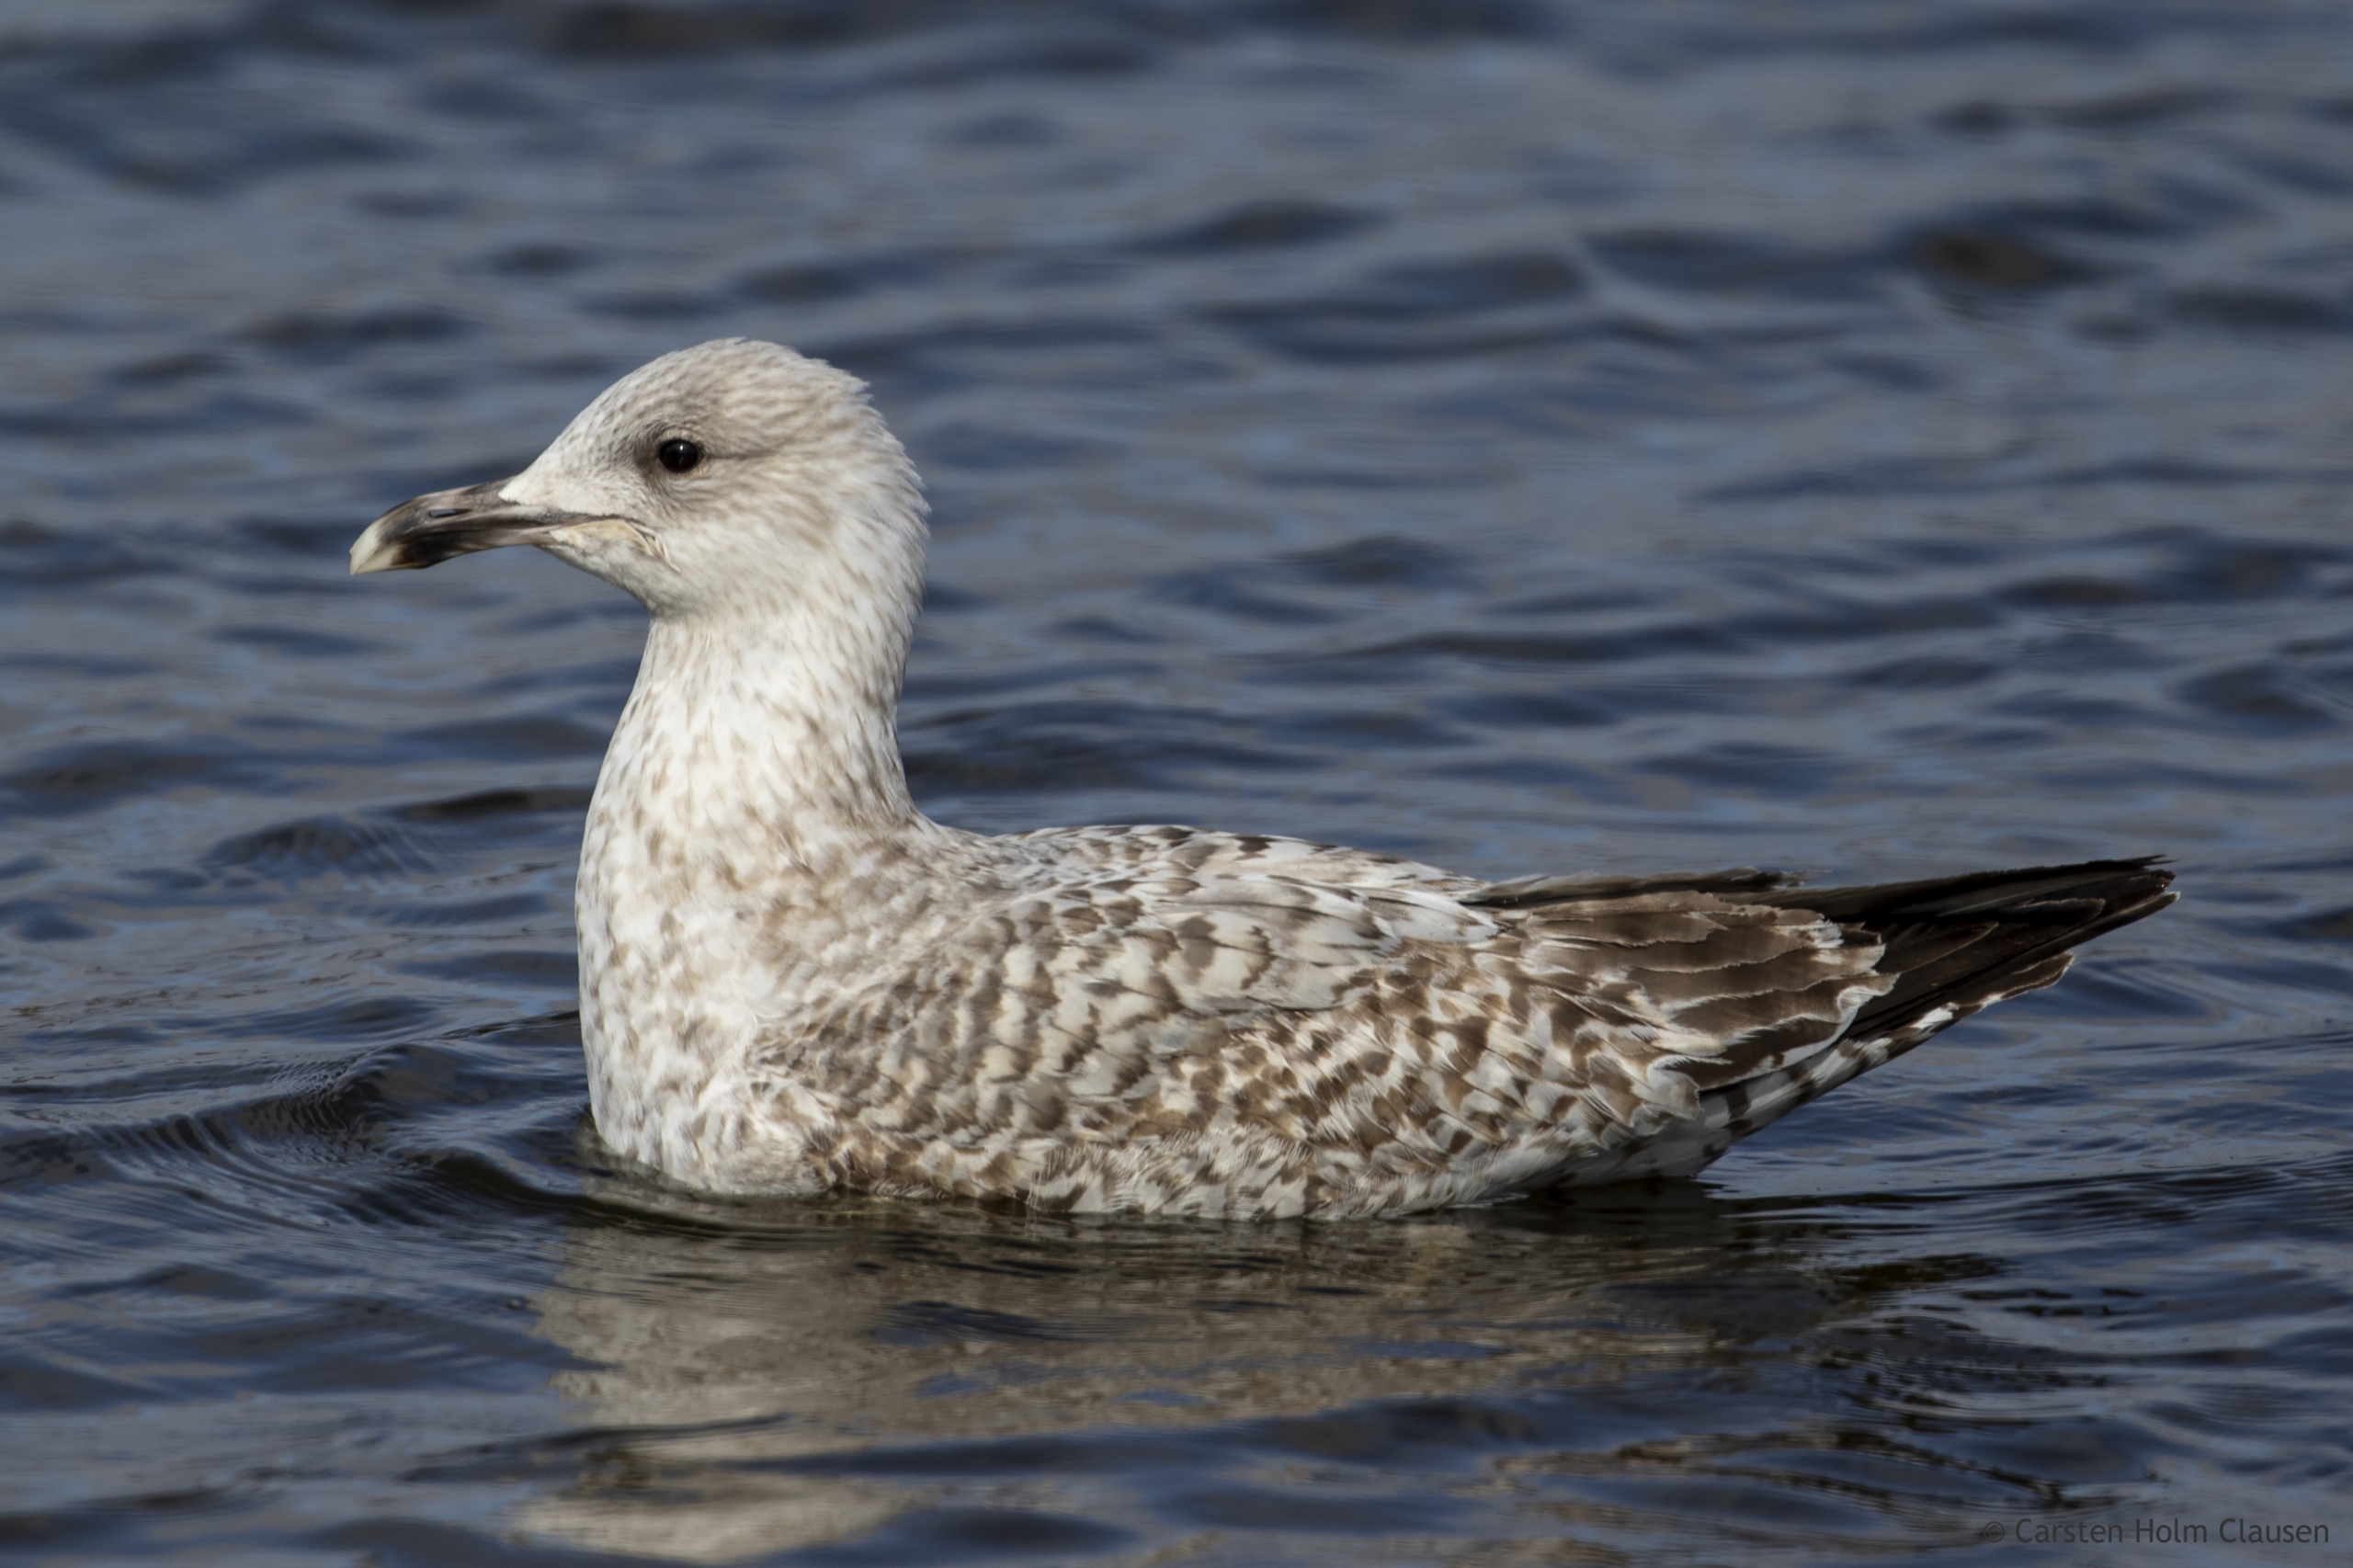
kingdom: Animalia
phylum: Chordata
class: Aves
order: Charadriiformes
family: Laridae
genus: Larus
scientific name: Larus argentatus
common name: Sølvmåge
